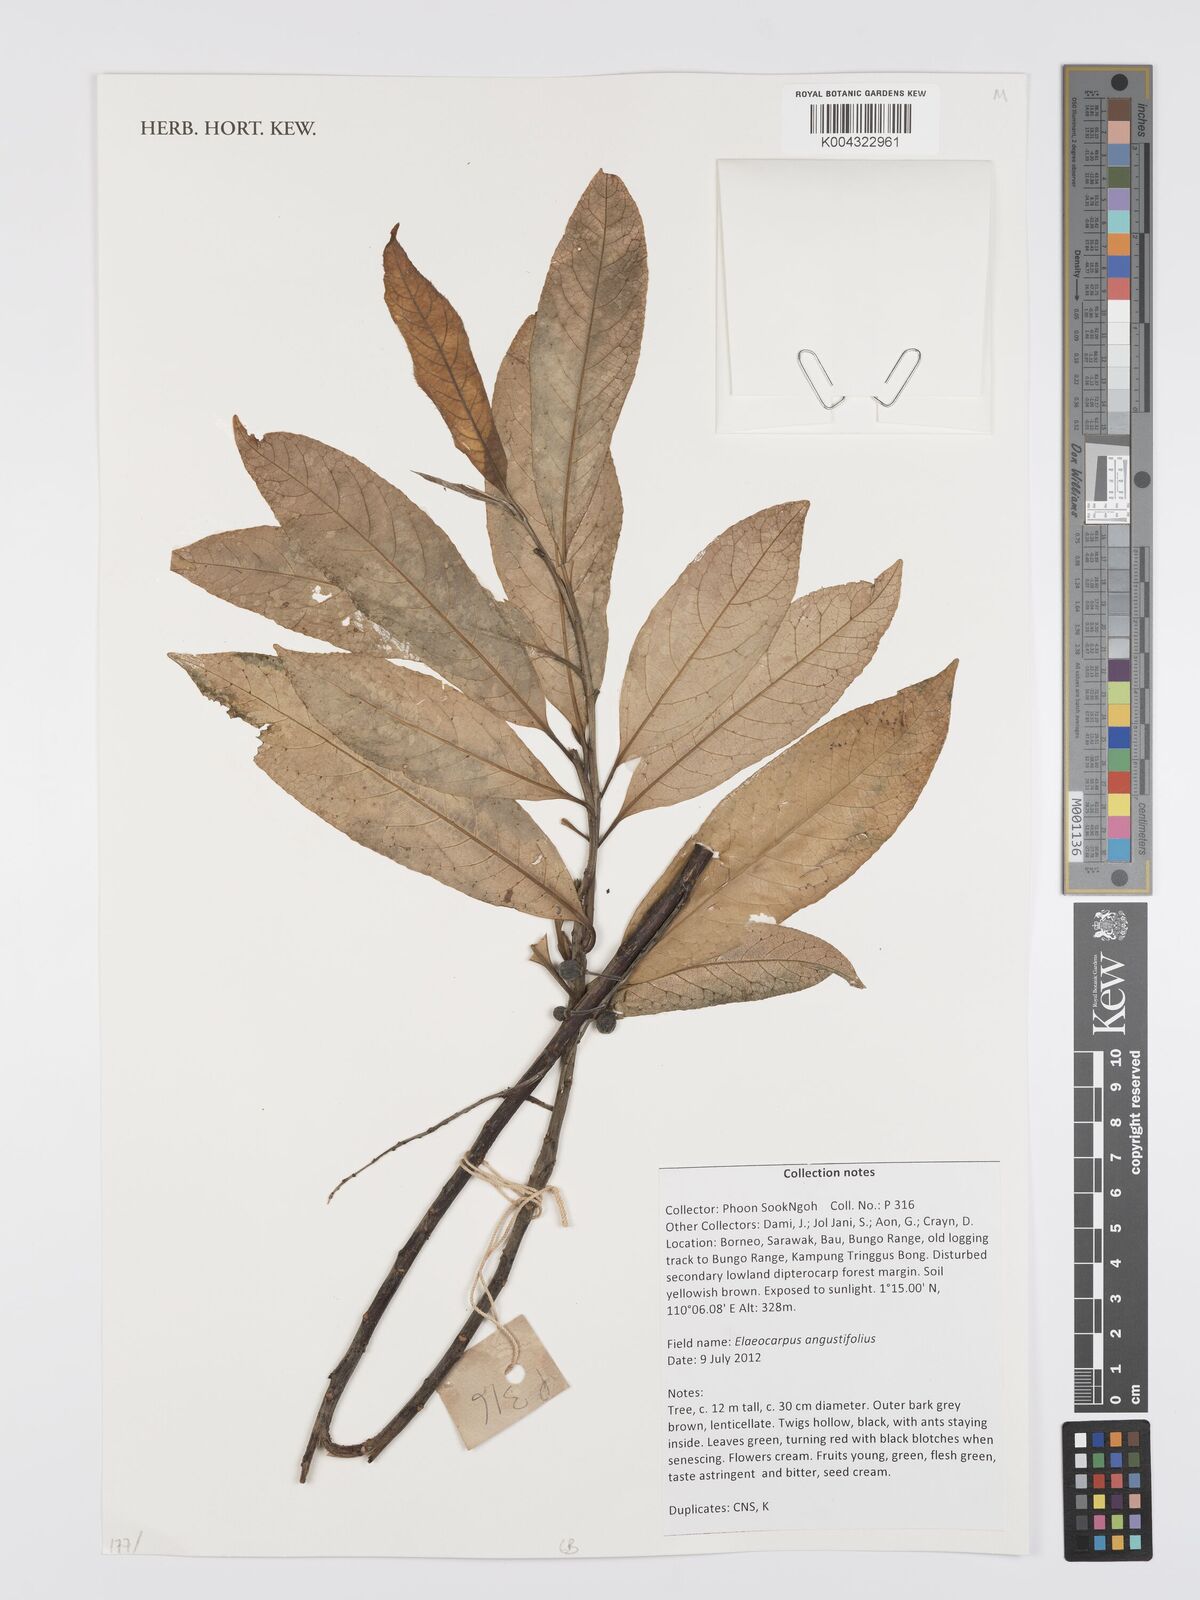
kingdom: Plantae
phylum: Tracheophyta
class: Magnoliopsida
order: Oxalidales
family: Elaeocarpaceae
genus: Elaeocarpus
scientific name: Elaeocarpus angustifolius
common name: Blue marble tree
